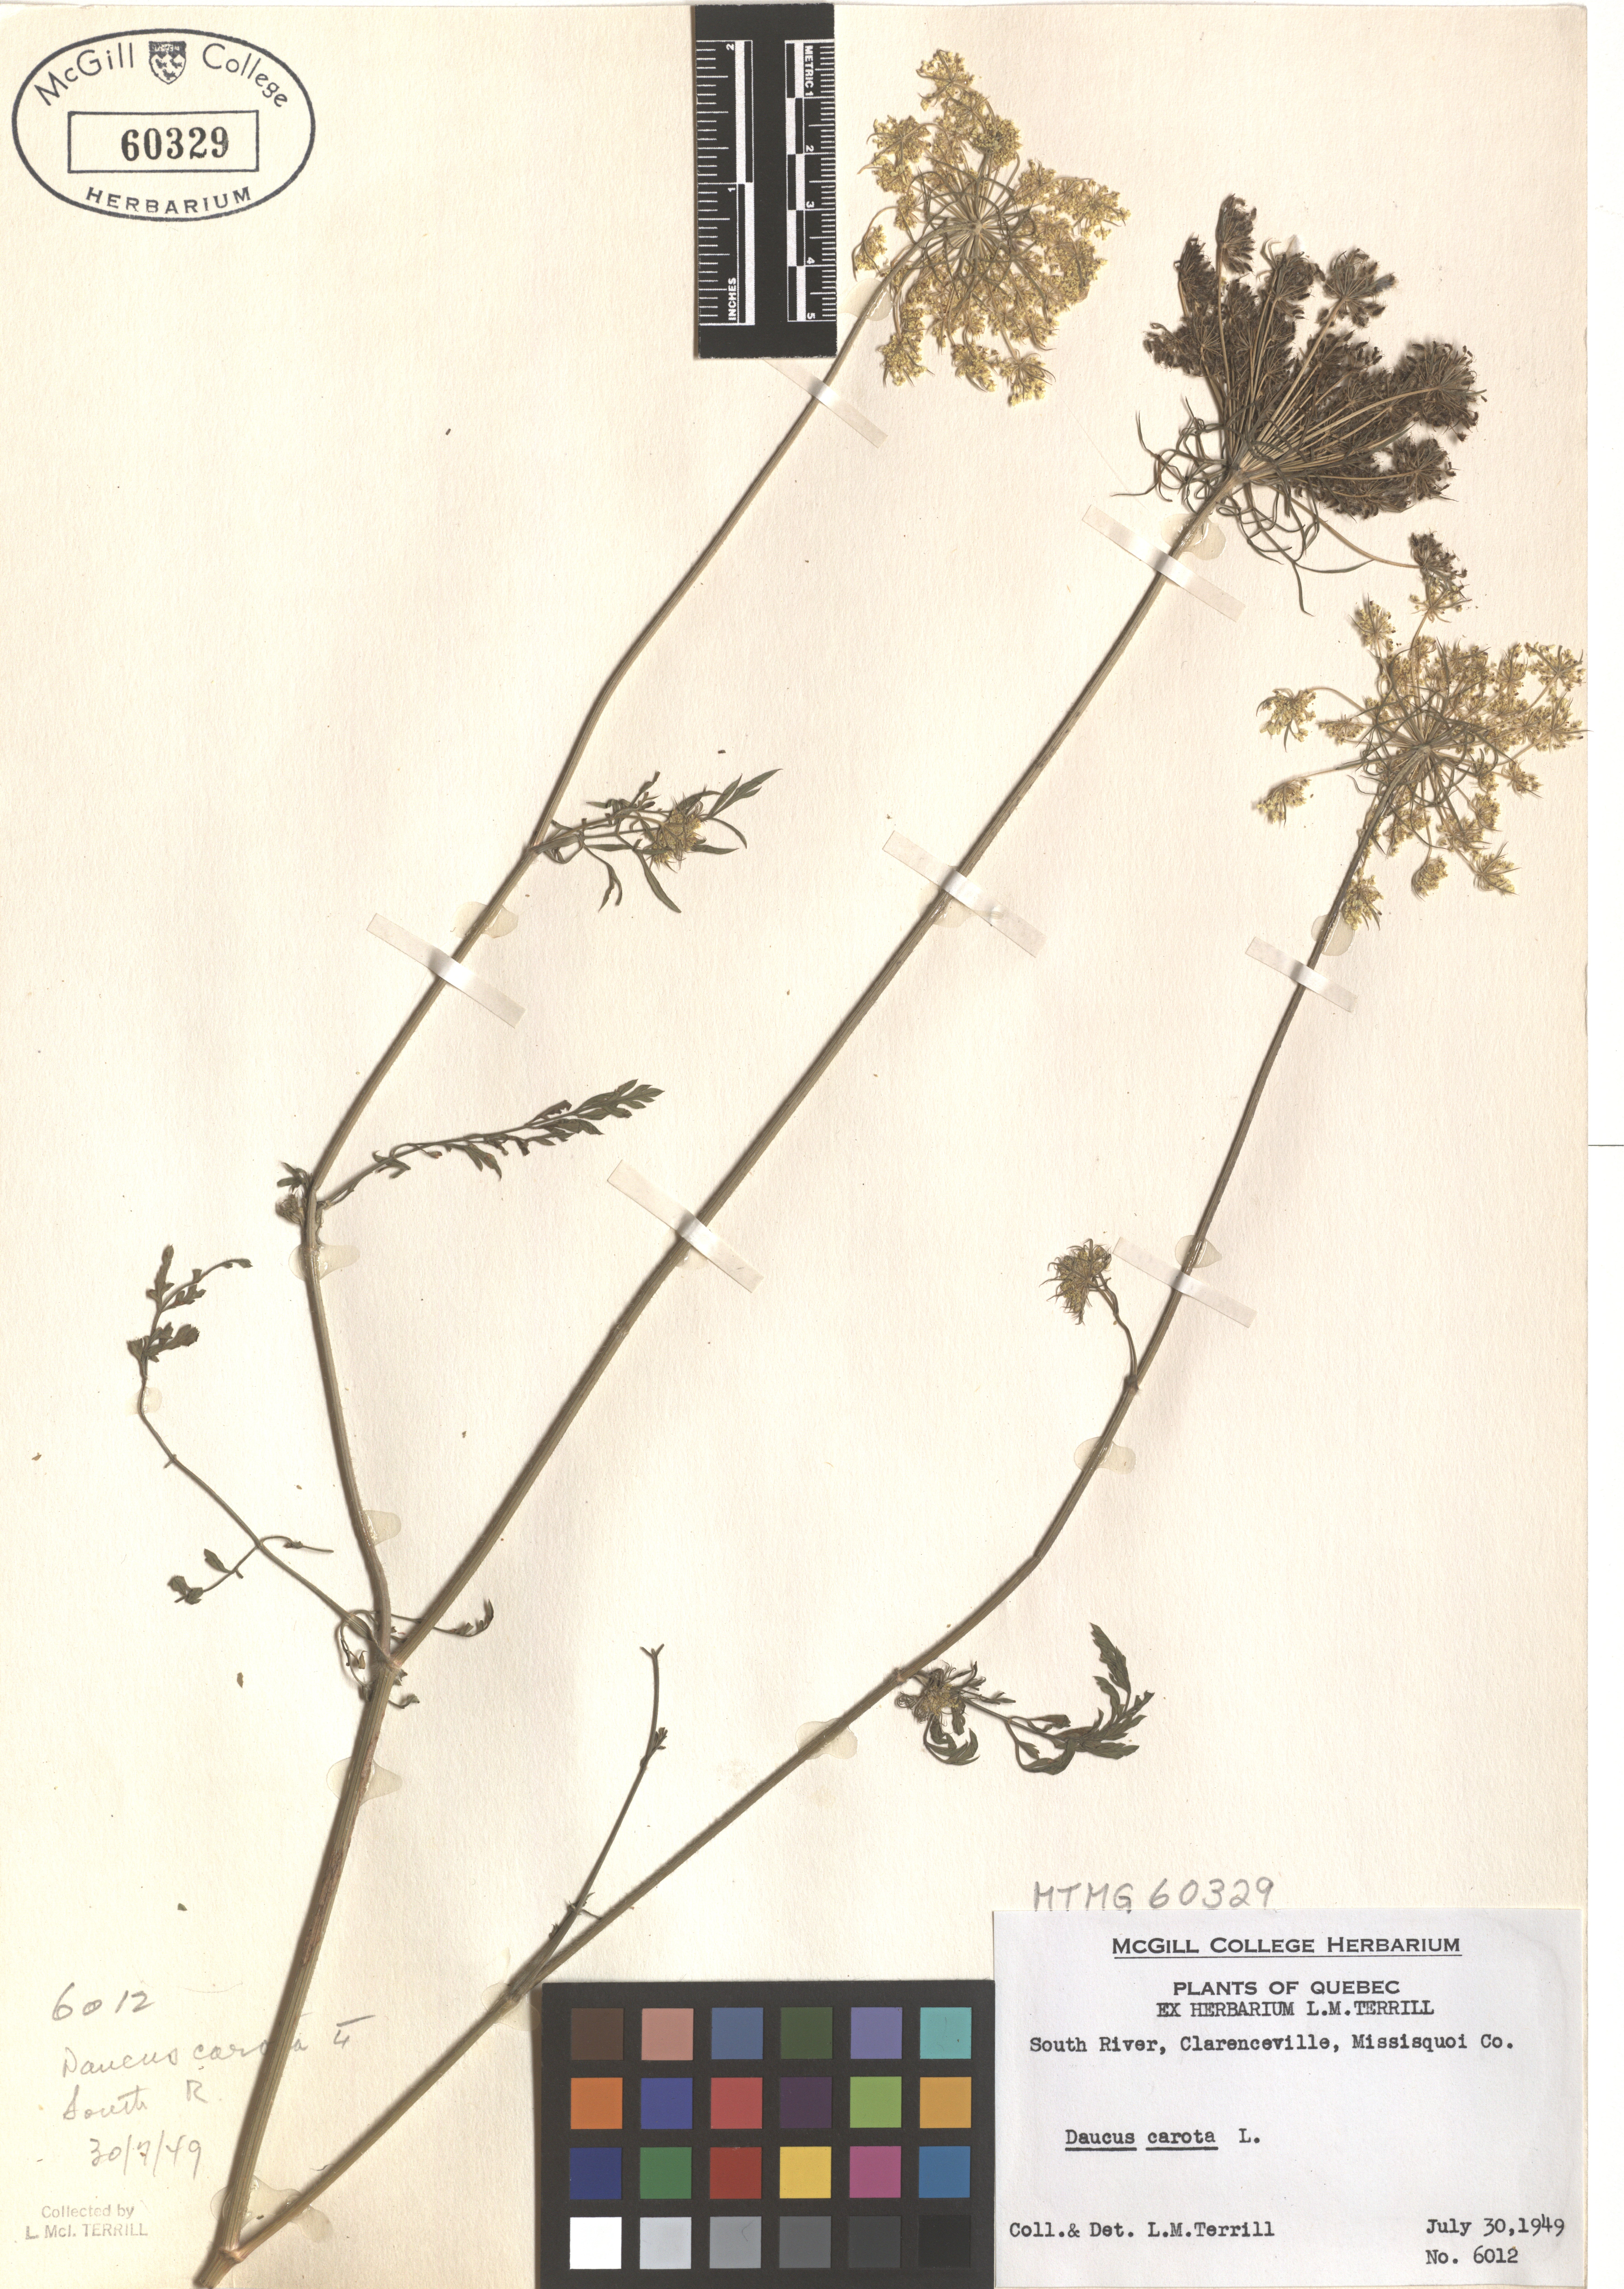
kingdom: Plantae
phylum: Tracheophyta
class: Magnoliopsida
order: Apiales
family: Apiaceae
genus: Daucus
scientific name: Daucus carota
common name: Wild carrot
